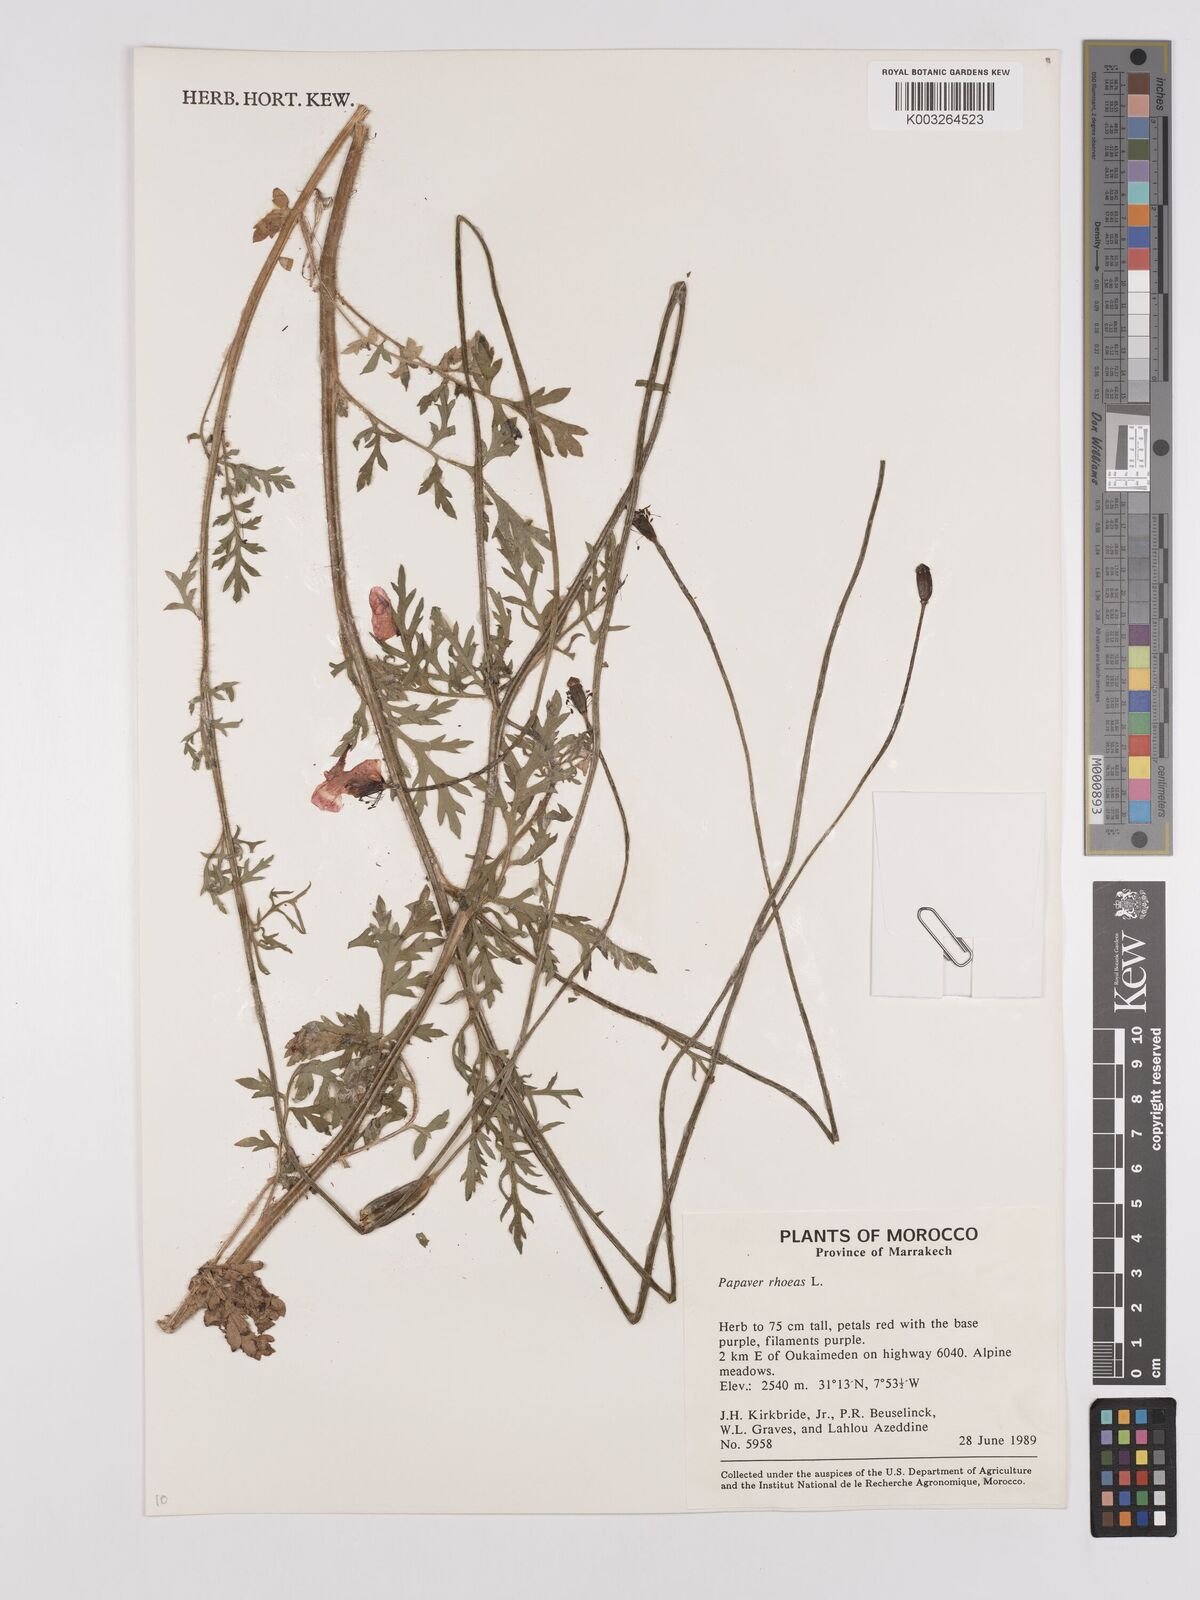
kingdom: Plantae
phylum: Tracheophyta
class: Magnoliopsida
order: Ranunculales
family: Papaveraceae
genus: Papaver
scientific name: Papaver rhoeas
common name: Corn poppy
